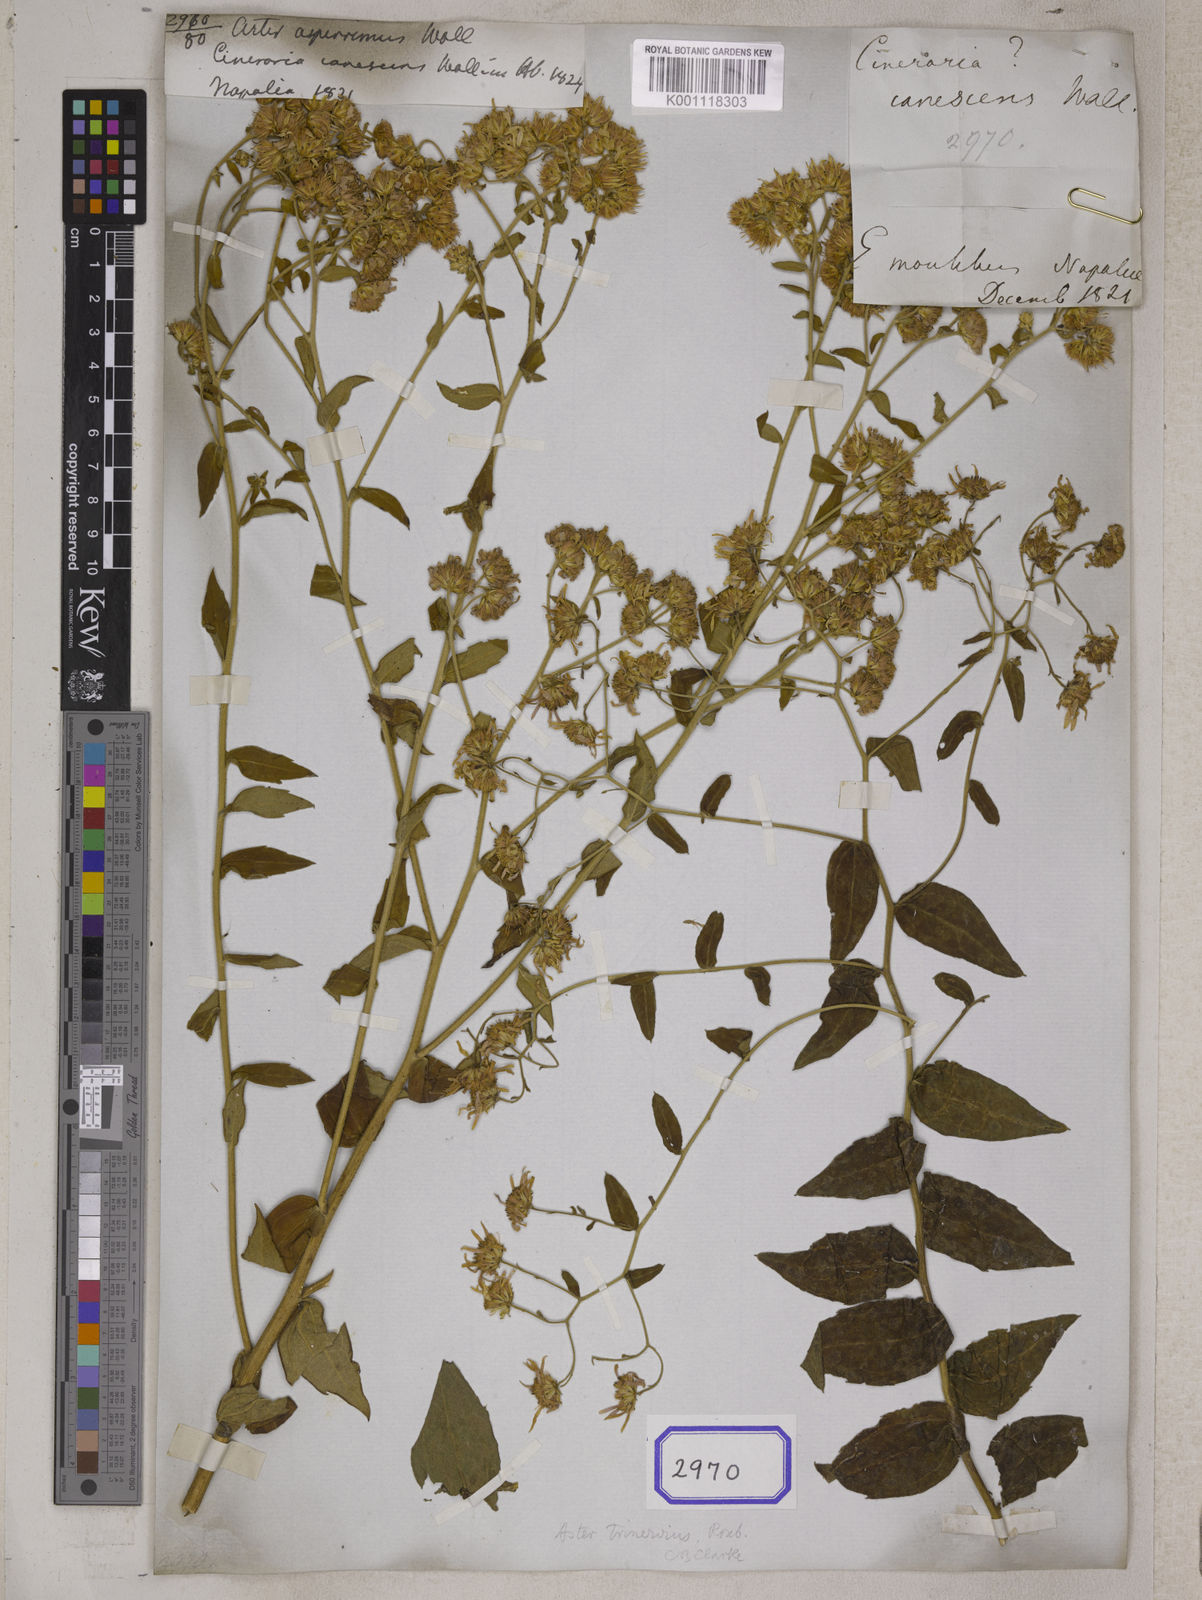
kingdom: Plantae
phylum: Tracheophyta
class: Magnoliopsida
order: Asterales
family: Asteraceae
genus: Galatella
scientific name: Galatella sedifolia
